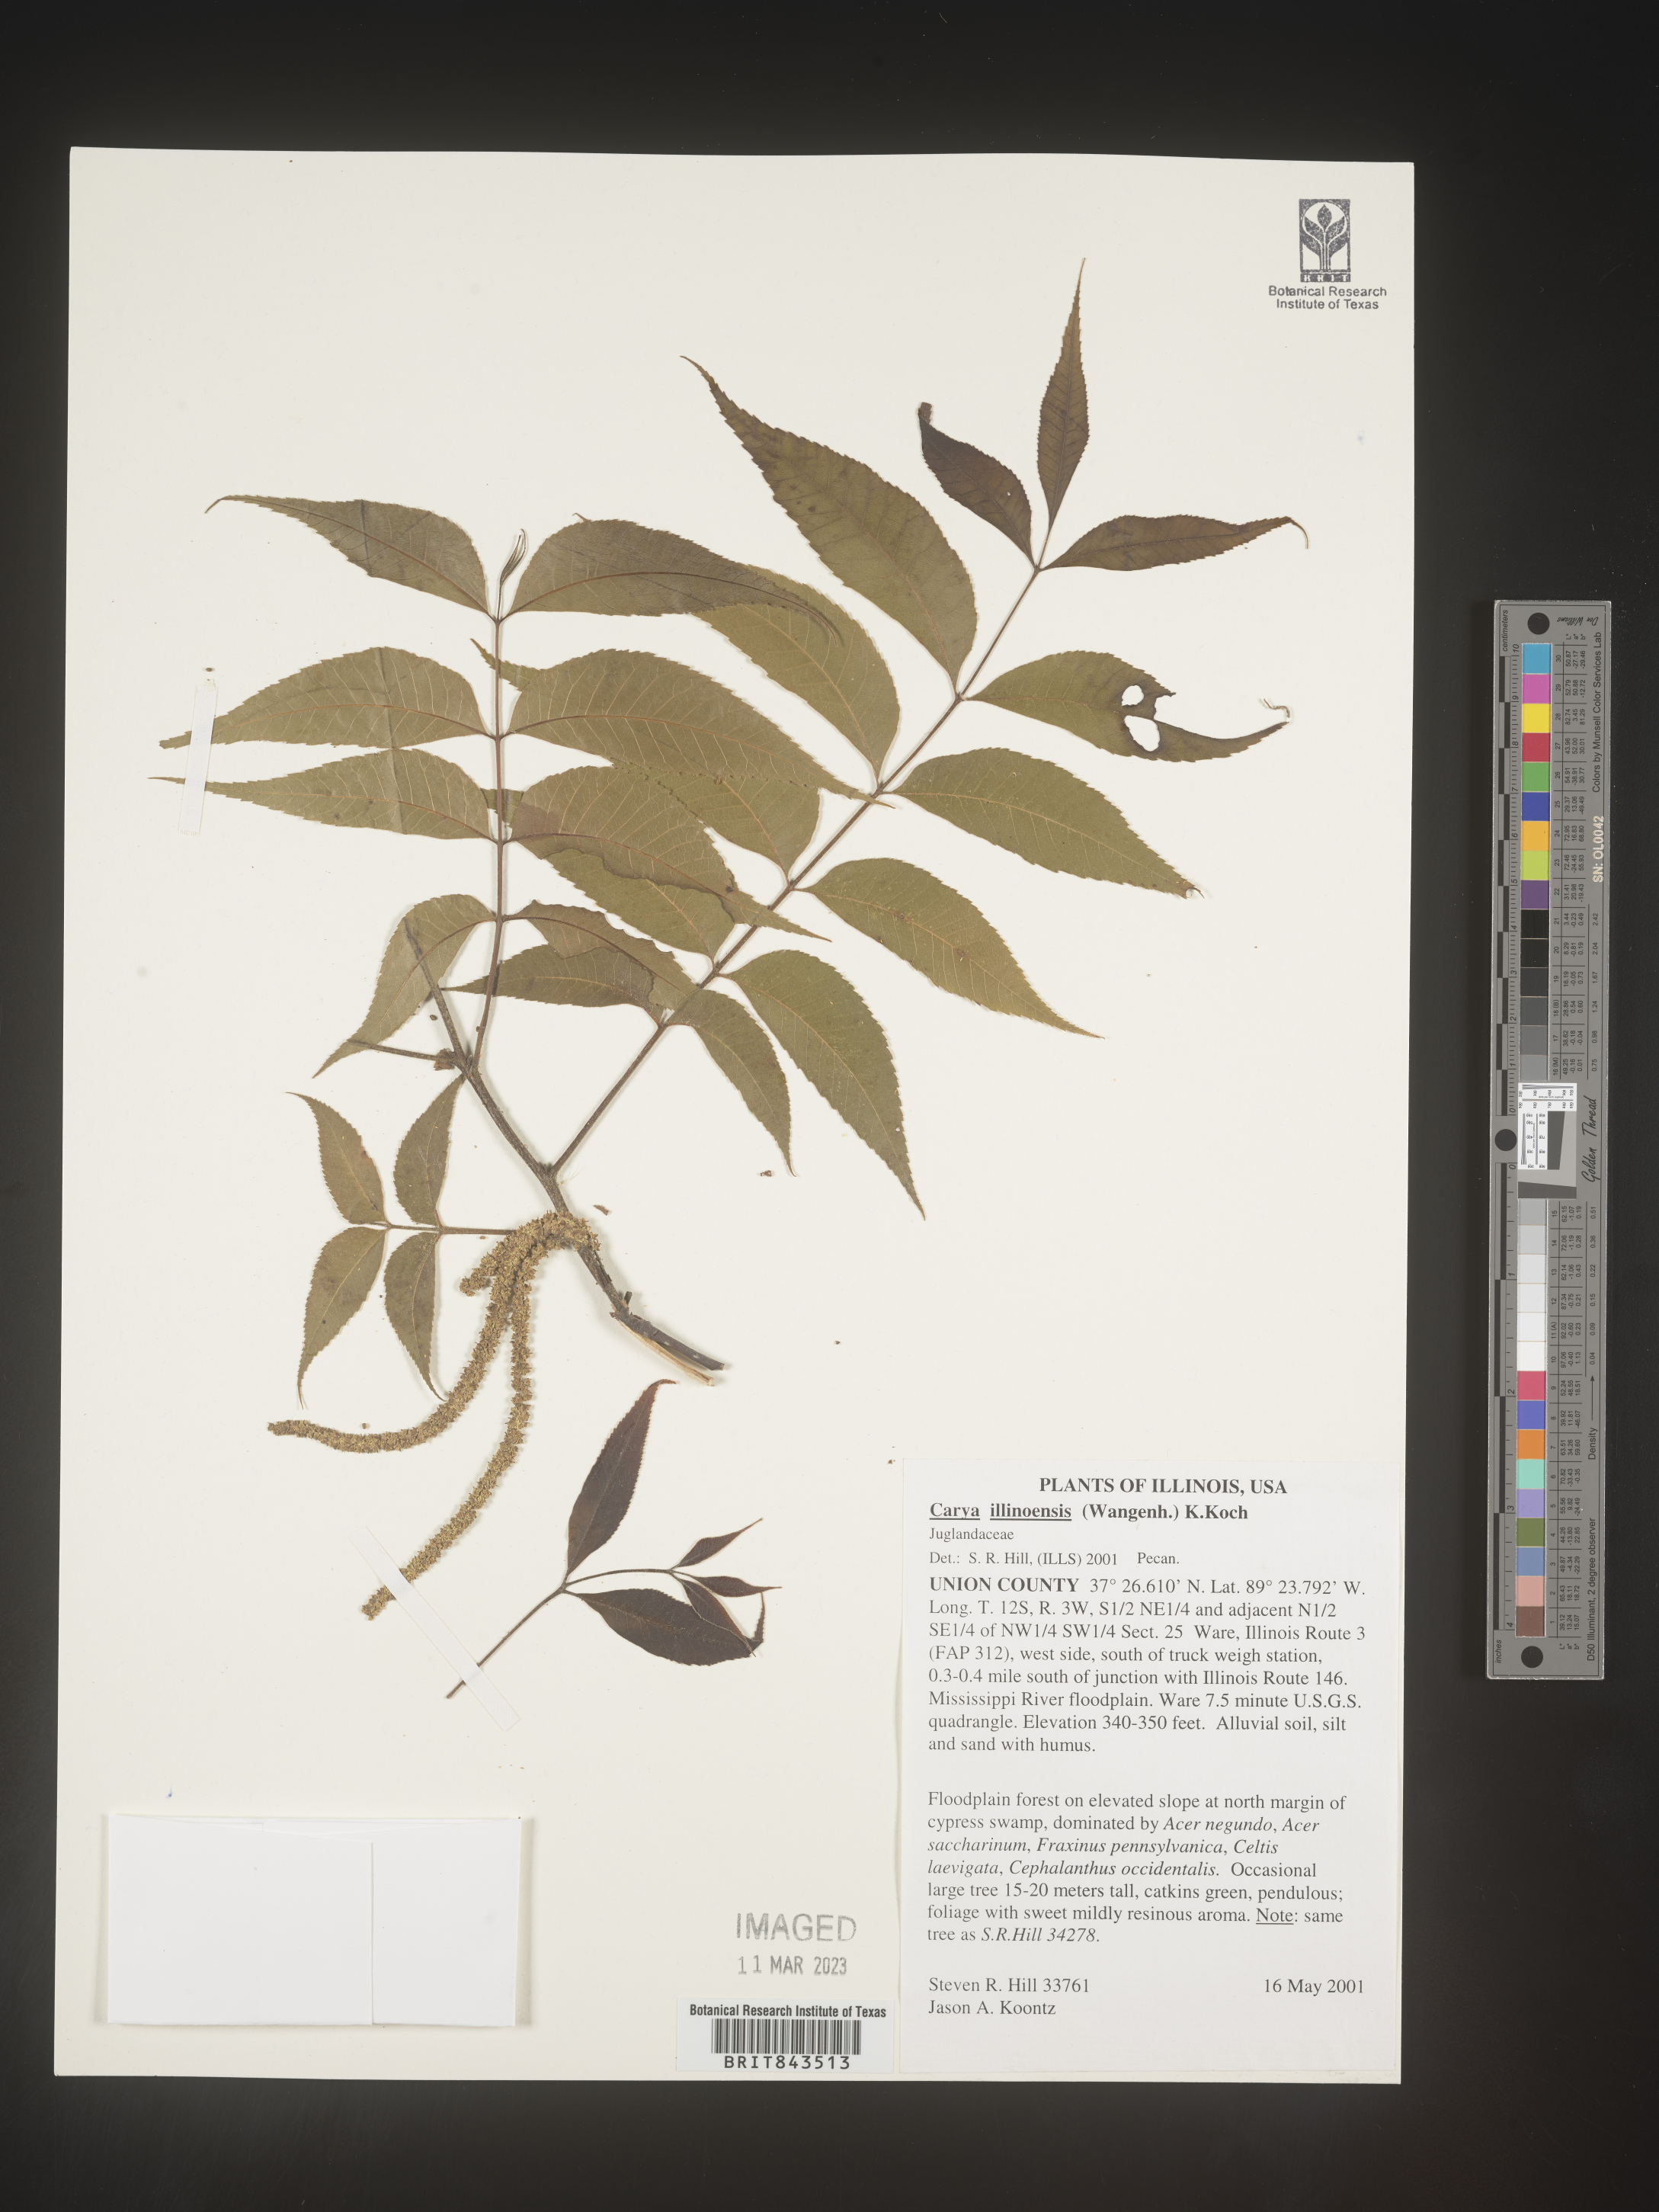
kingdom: Plantae
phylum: Tracheophyta
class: Magnoliopsida
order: Fagales
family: Juglandaceae
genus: Carya
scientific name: Carya illinoinensis
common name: Pecan
